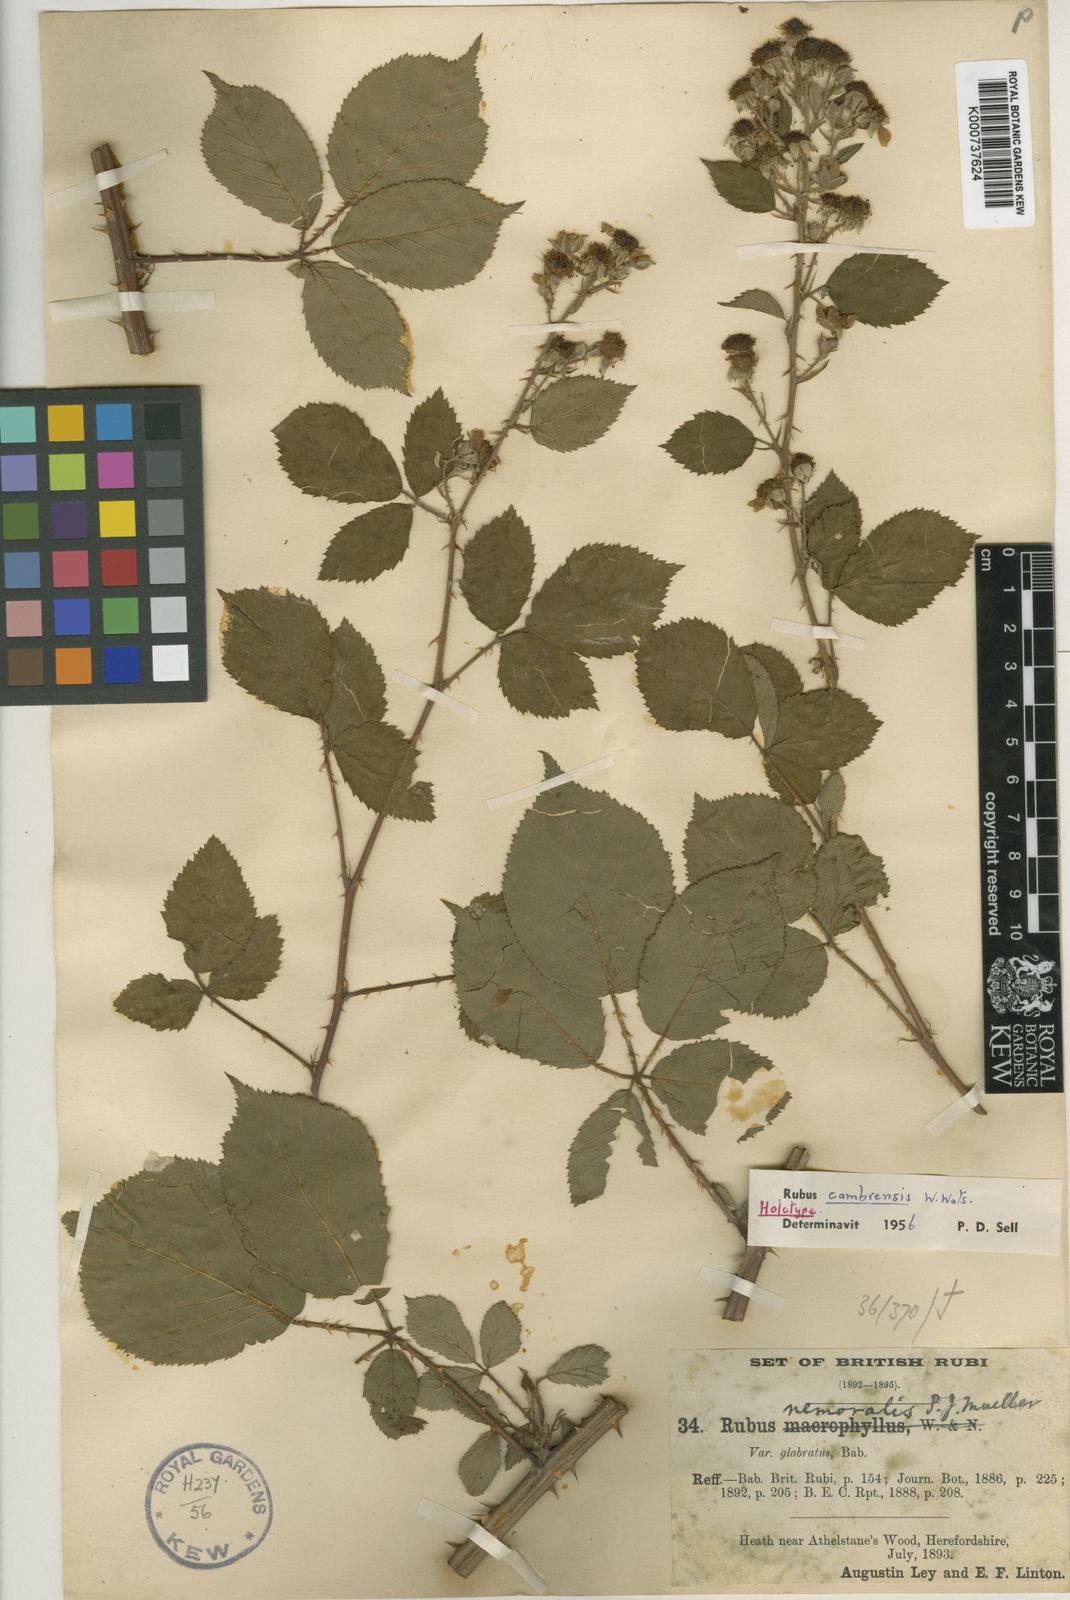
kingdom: Plantae
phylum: Tracheophyta
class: Magnoliopsida
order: Rosales
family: Rosaceae
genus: Rubus
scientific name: Rubus cambrensis
